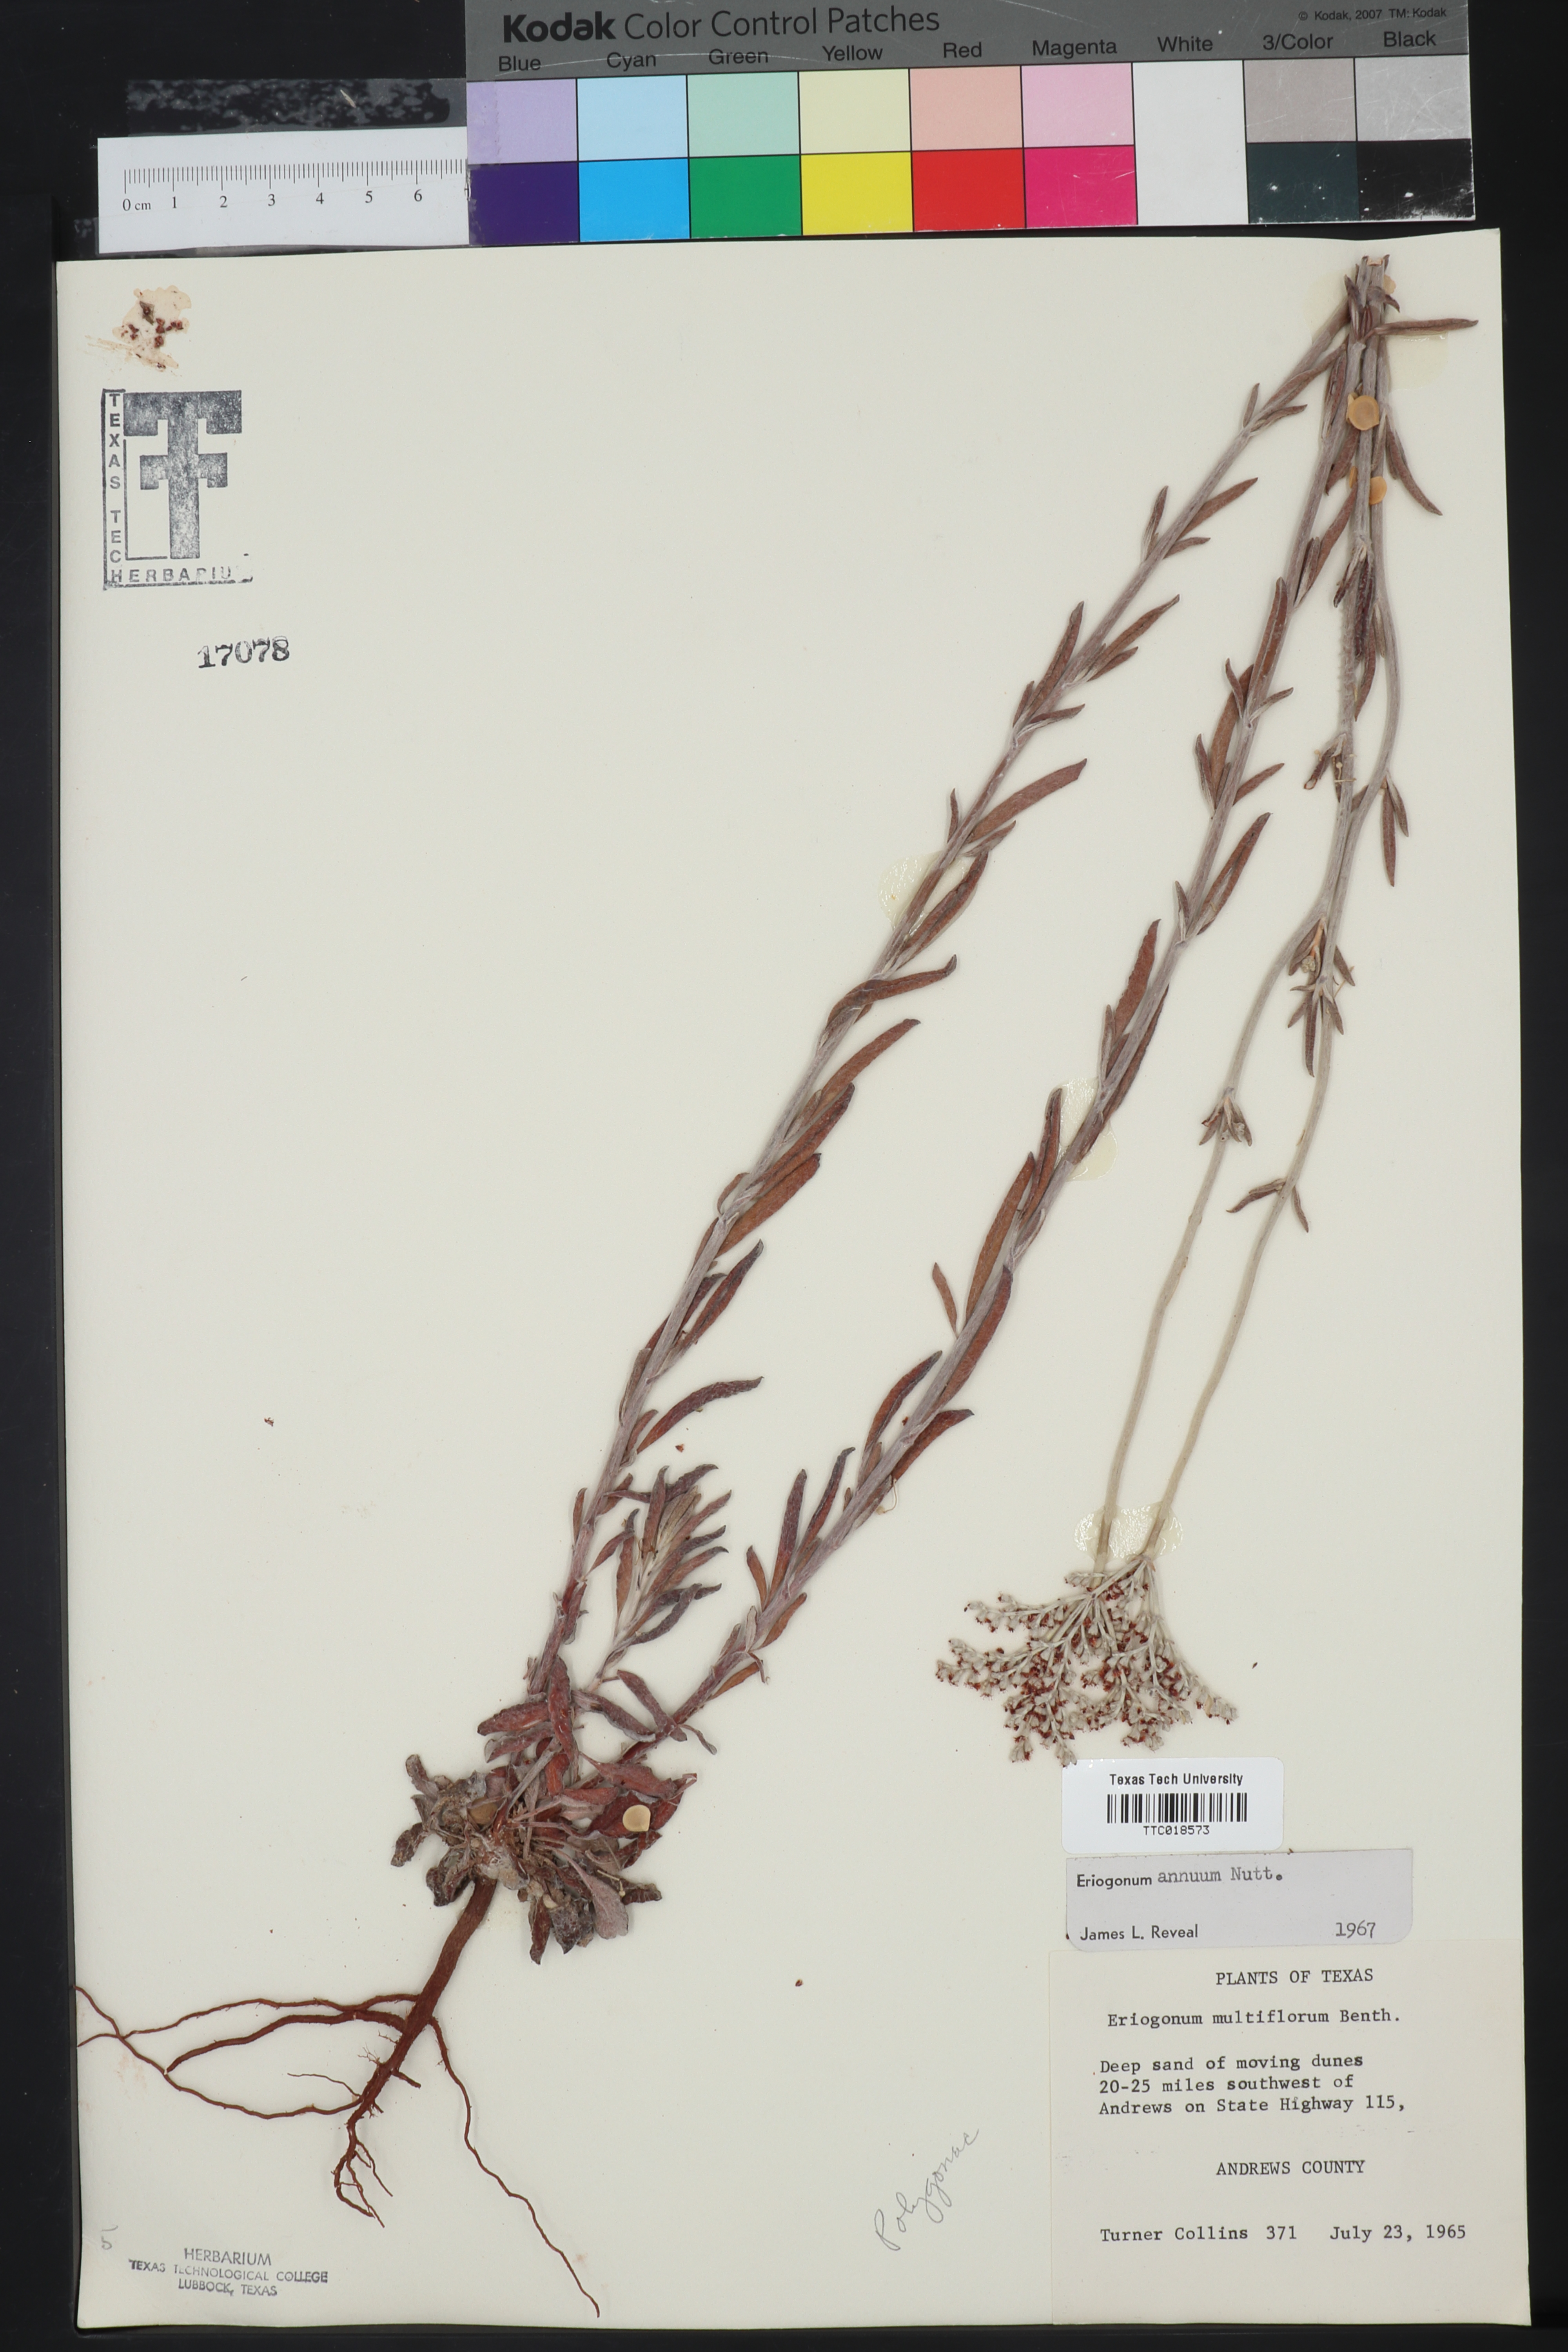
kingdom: Plantae
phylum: Tracheophyta
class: Magnoliopsida
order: Caryophyllales
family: Polygonaceae
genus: Eriogonum
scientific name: Eriogonum annuum
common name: Annual wild buckwheat
